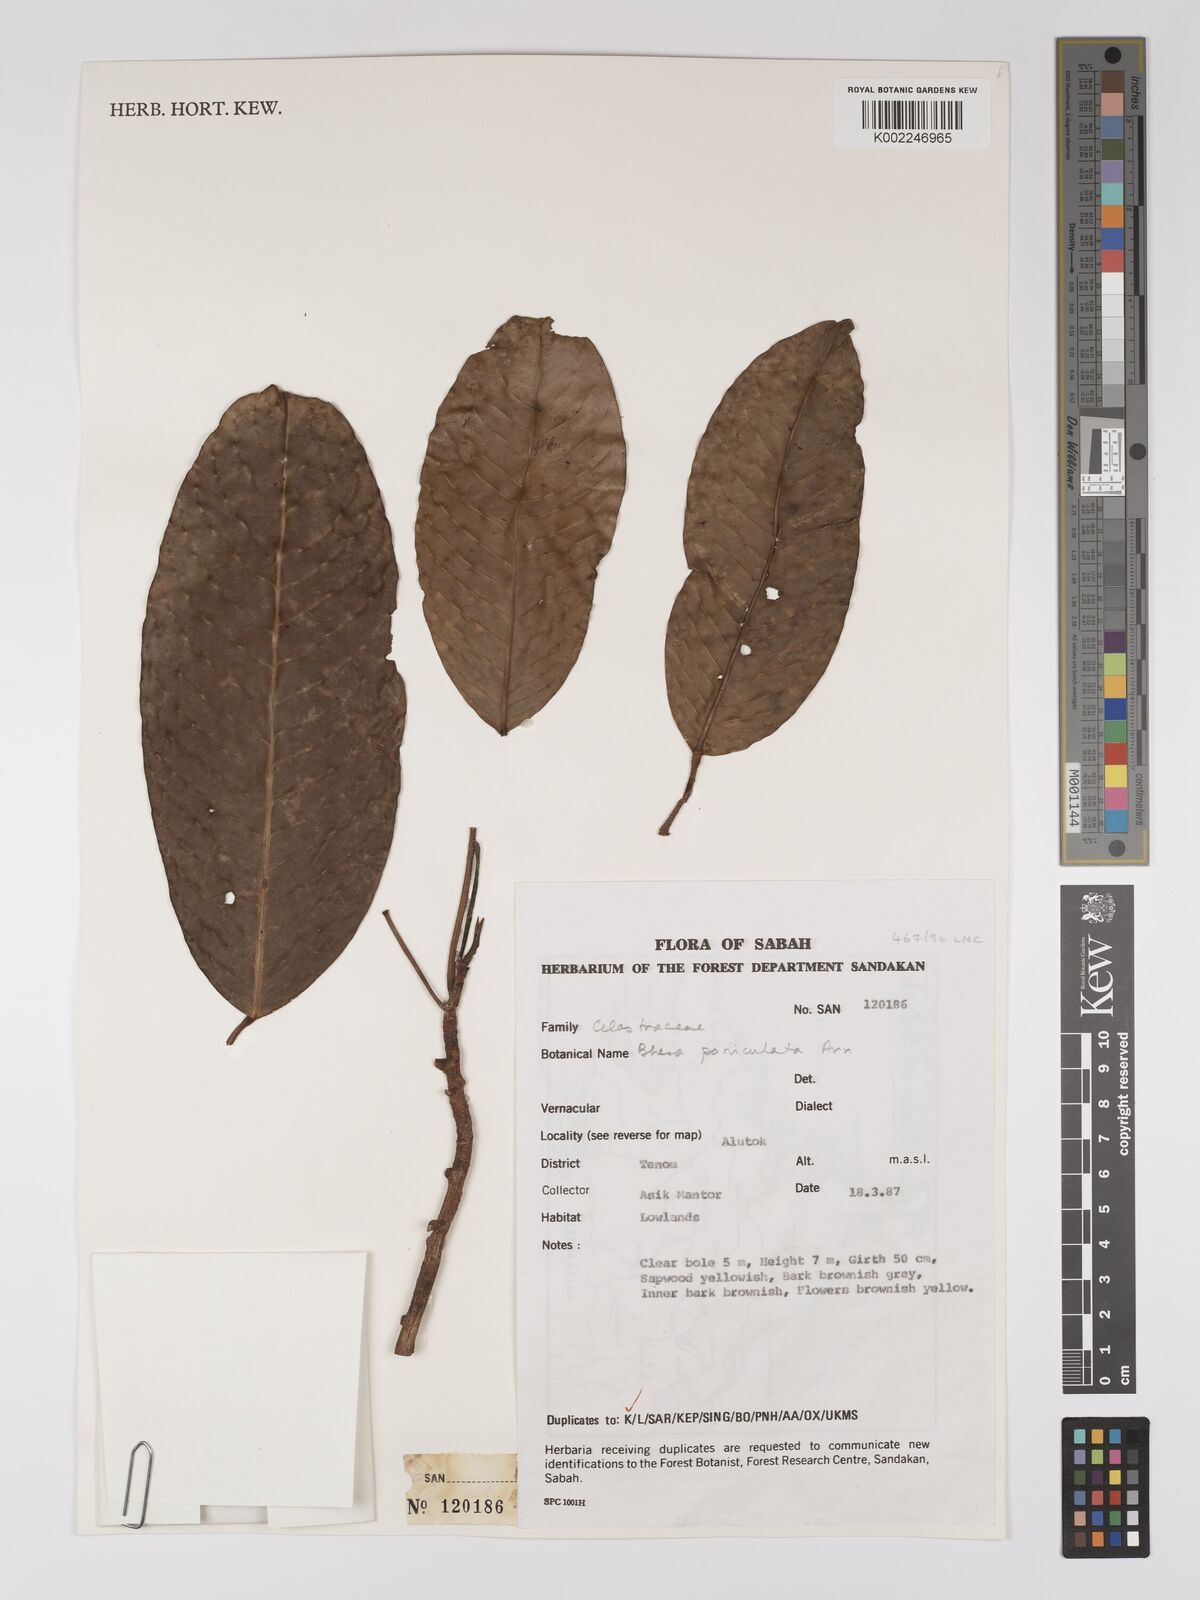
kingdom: Plantae
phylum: Tracheophyta
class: Magnoliopsida
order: Malpighiales
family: Centroplacaceae
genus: Bhesa
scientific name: Bhesa paniculata
